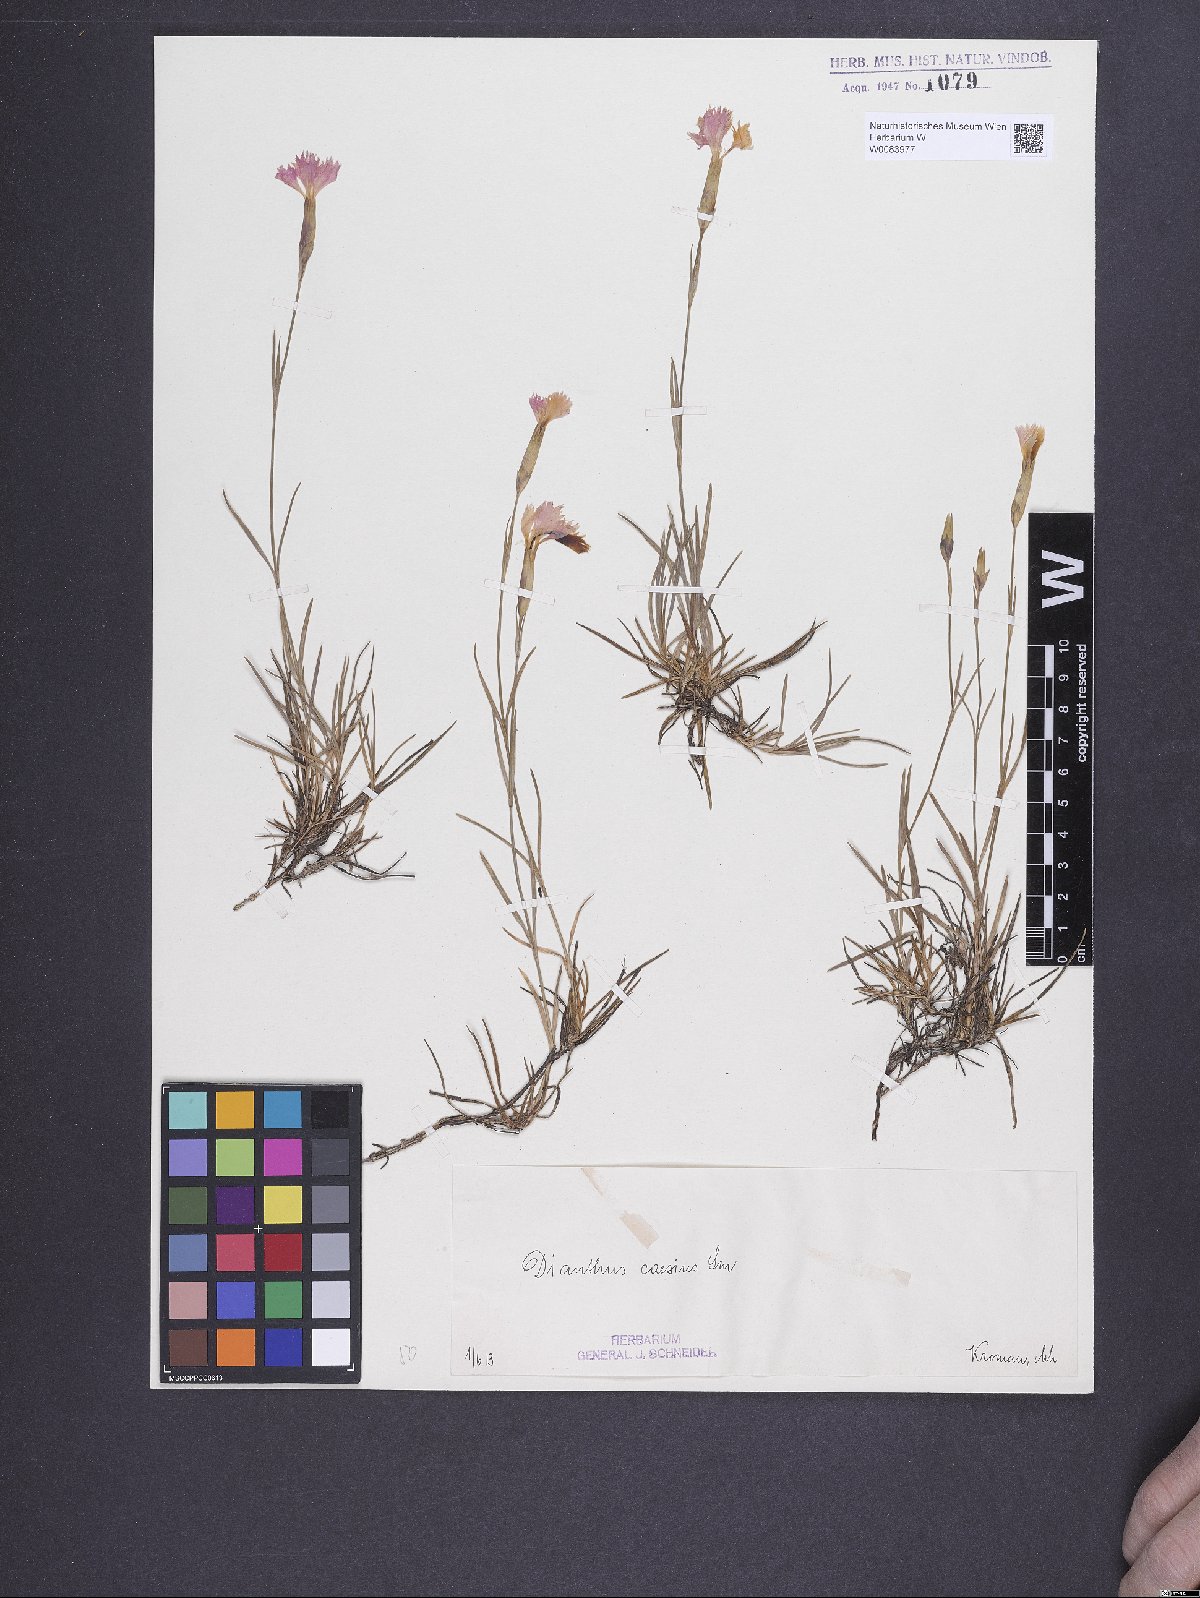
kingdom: Plantae
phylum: Tracheophyta
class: Magnoliopsida
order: Caryophyllales
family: Caryophyllaceae
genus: Dianthus
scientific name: Dianthus gratianopolitanus
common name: Cheddar pink
